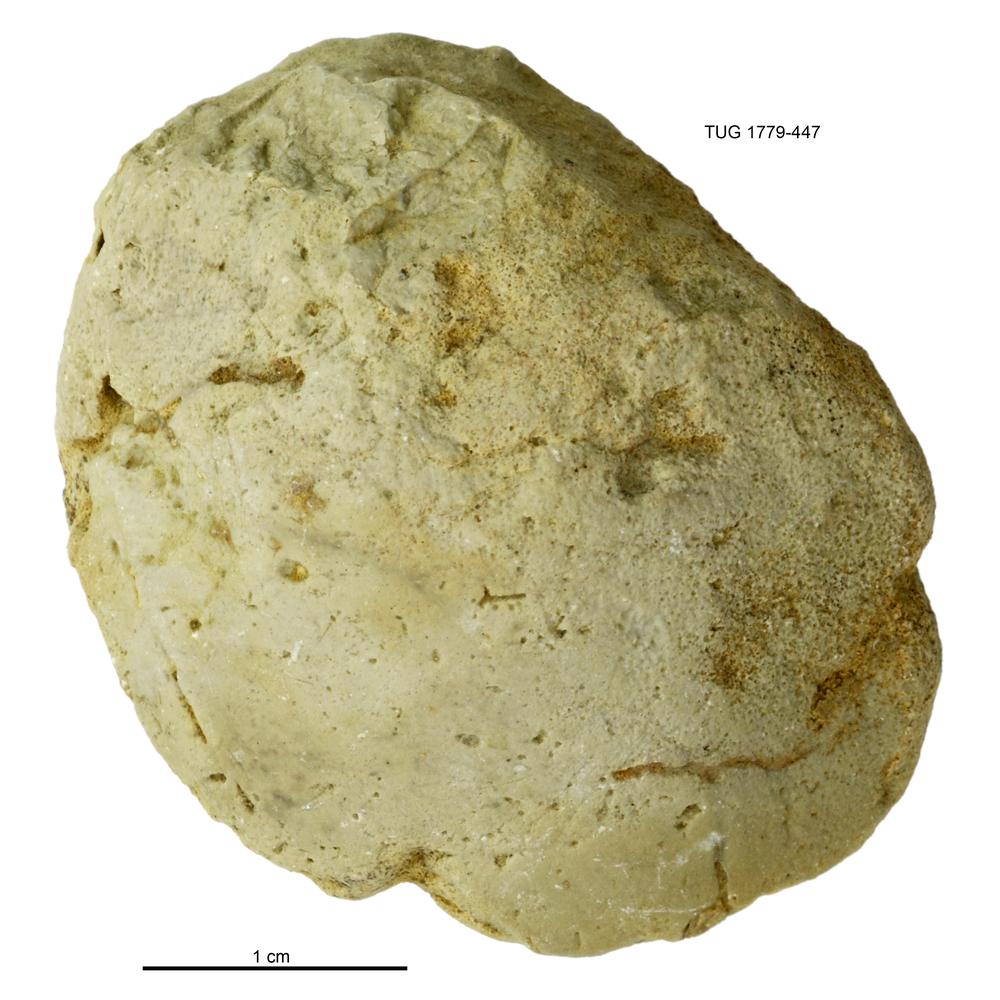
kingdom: Animalia
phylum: Mollusca
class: Bivalvia
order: Modiomorphida
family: Modiomorphidae
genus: Modiolopsis
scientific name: Modiolopsis
